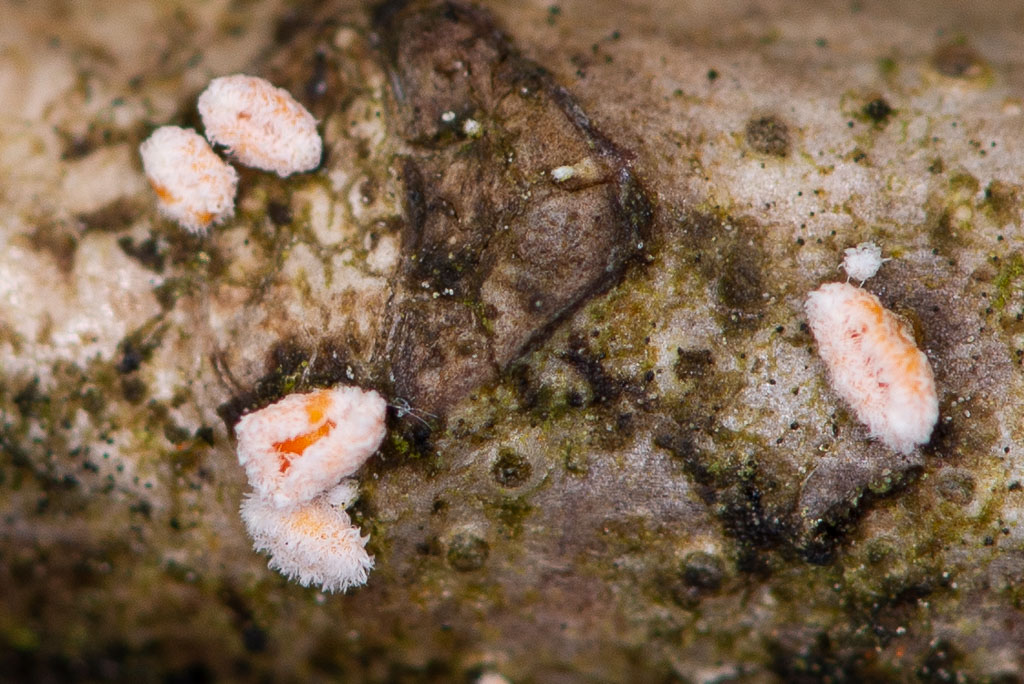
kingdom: Fungi
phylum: Ascomycota
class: Leotiomycetes
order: Helotiales
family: Lachnaceae
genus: Capitotricha
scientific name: Capitotricha bicolor
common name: prægtig frynseskive
